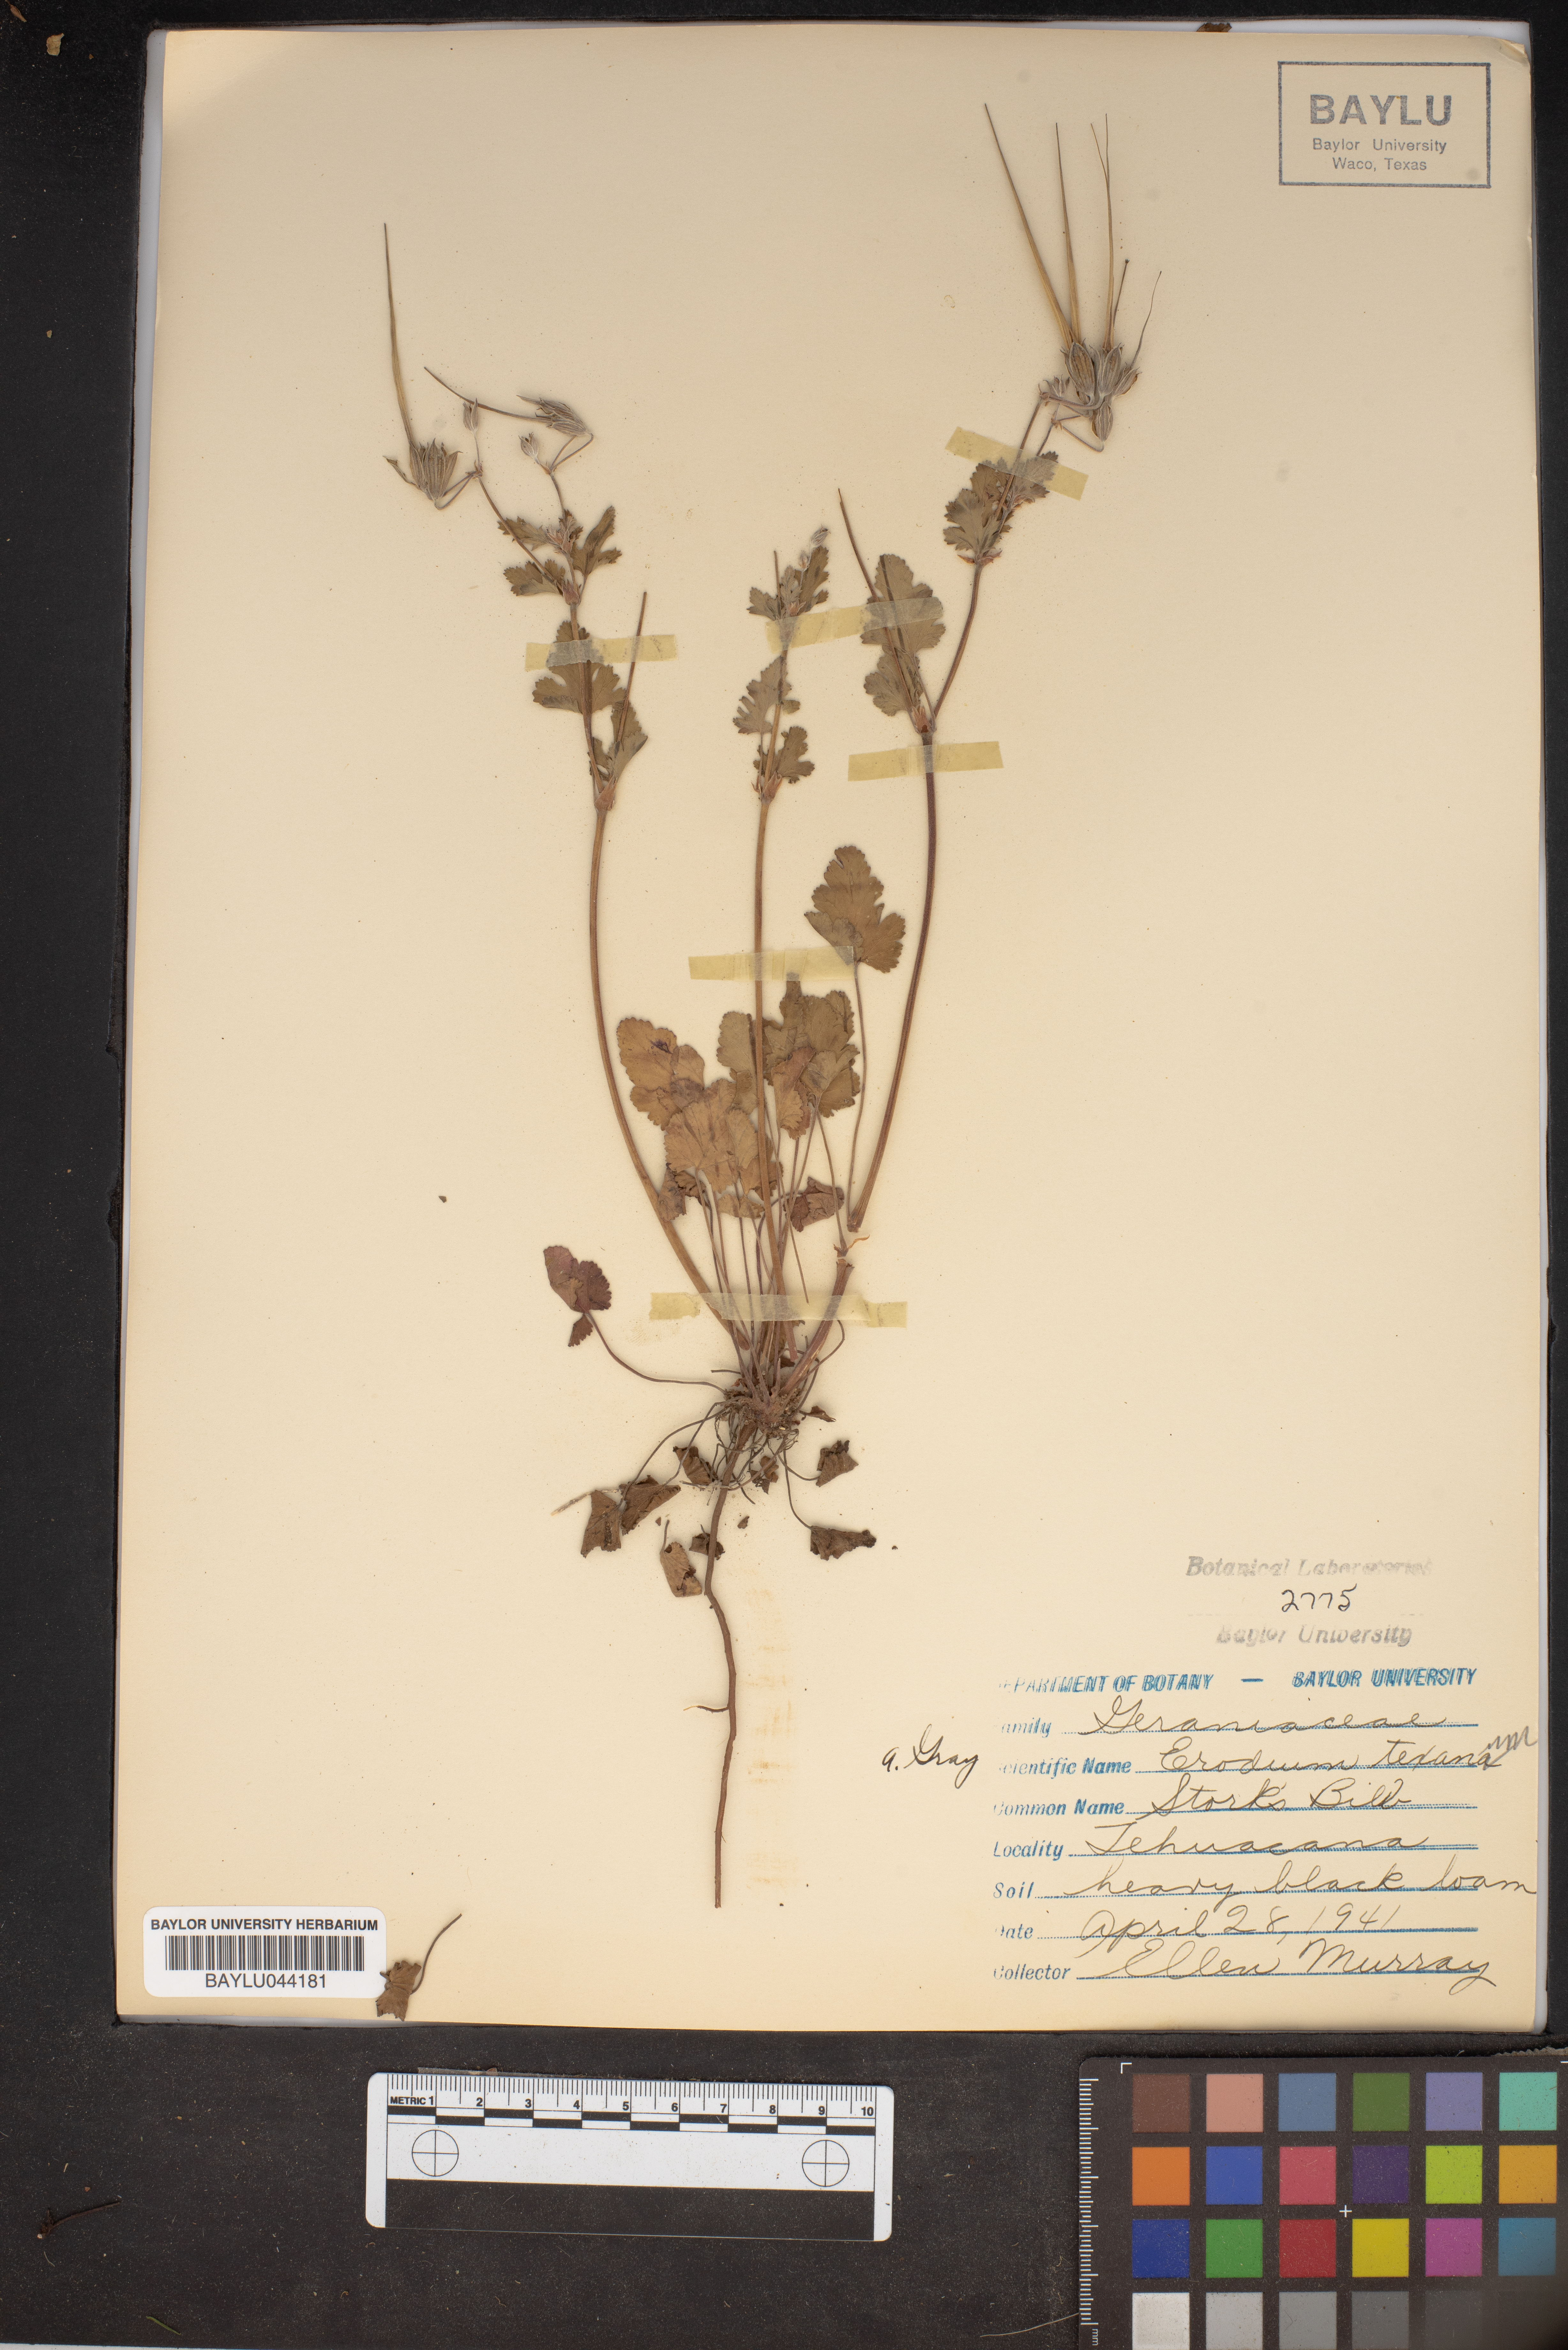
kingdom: Plantae
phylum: Tracheophyta
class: Magnoliopsida
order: Geraniales
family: Geraniaceae
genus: Erodium
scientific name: Erodium texanum
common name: Texas stork's-bill
